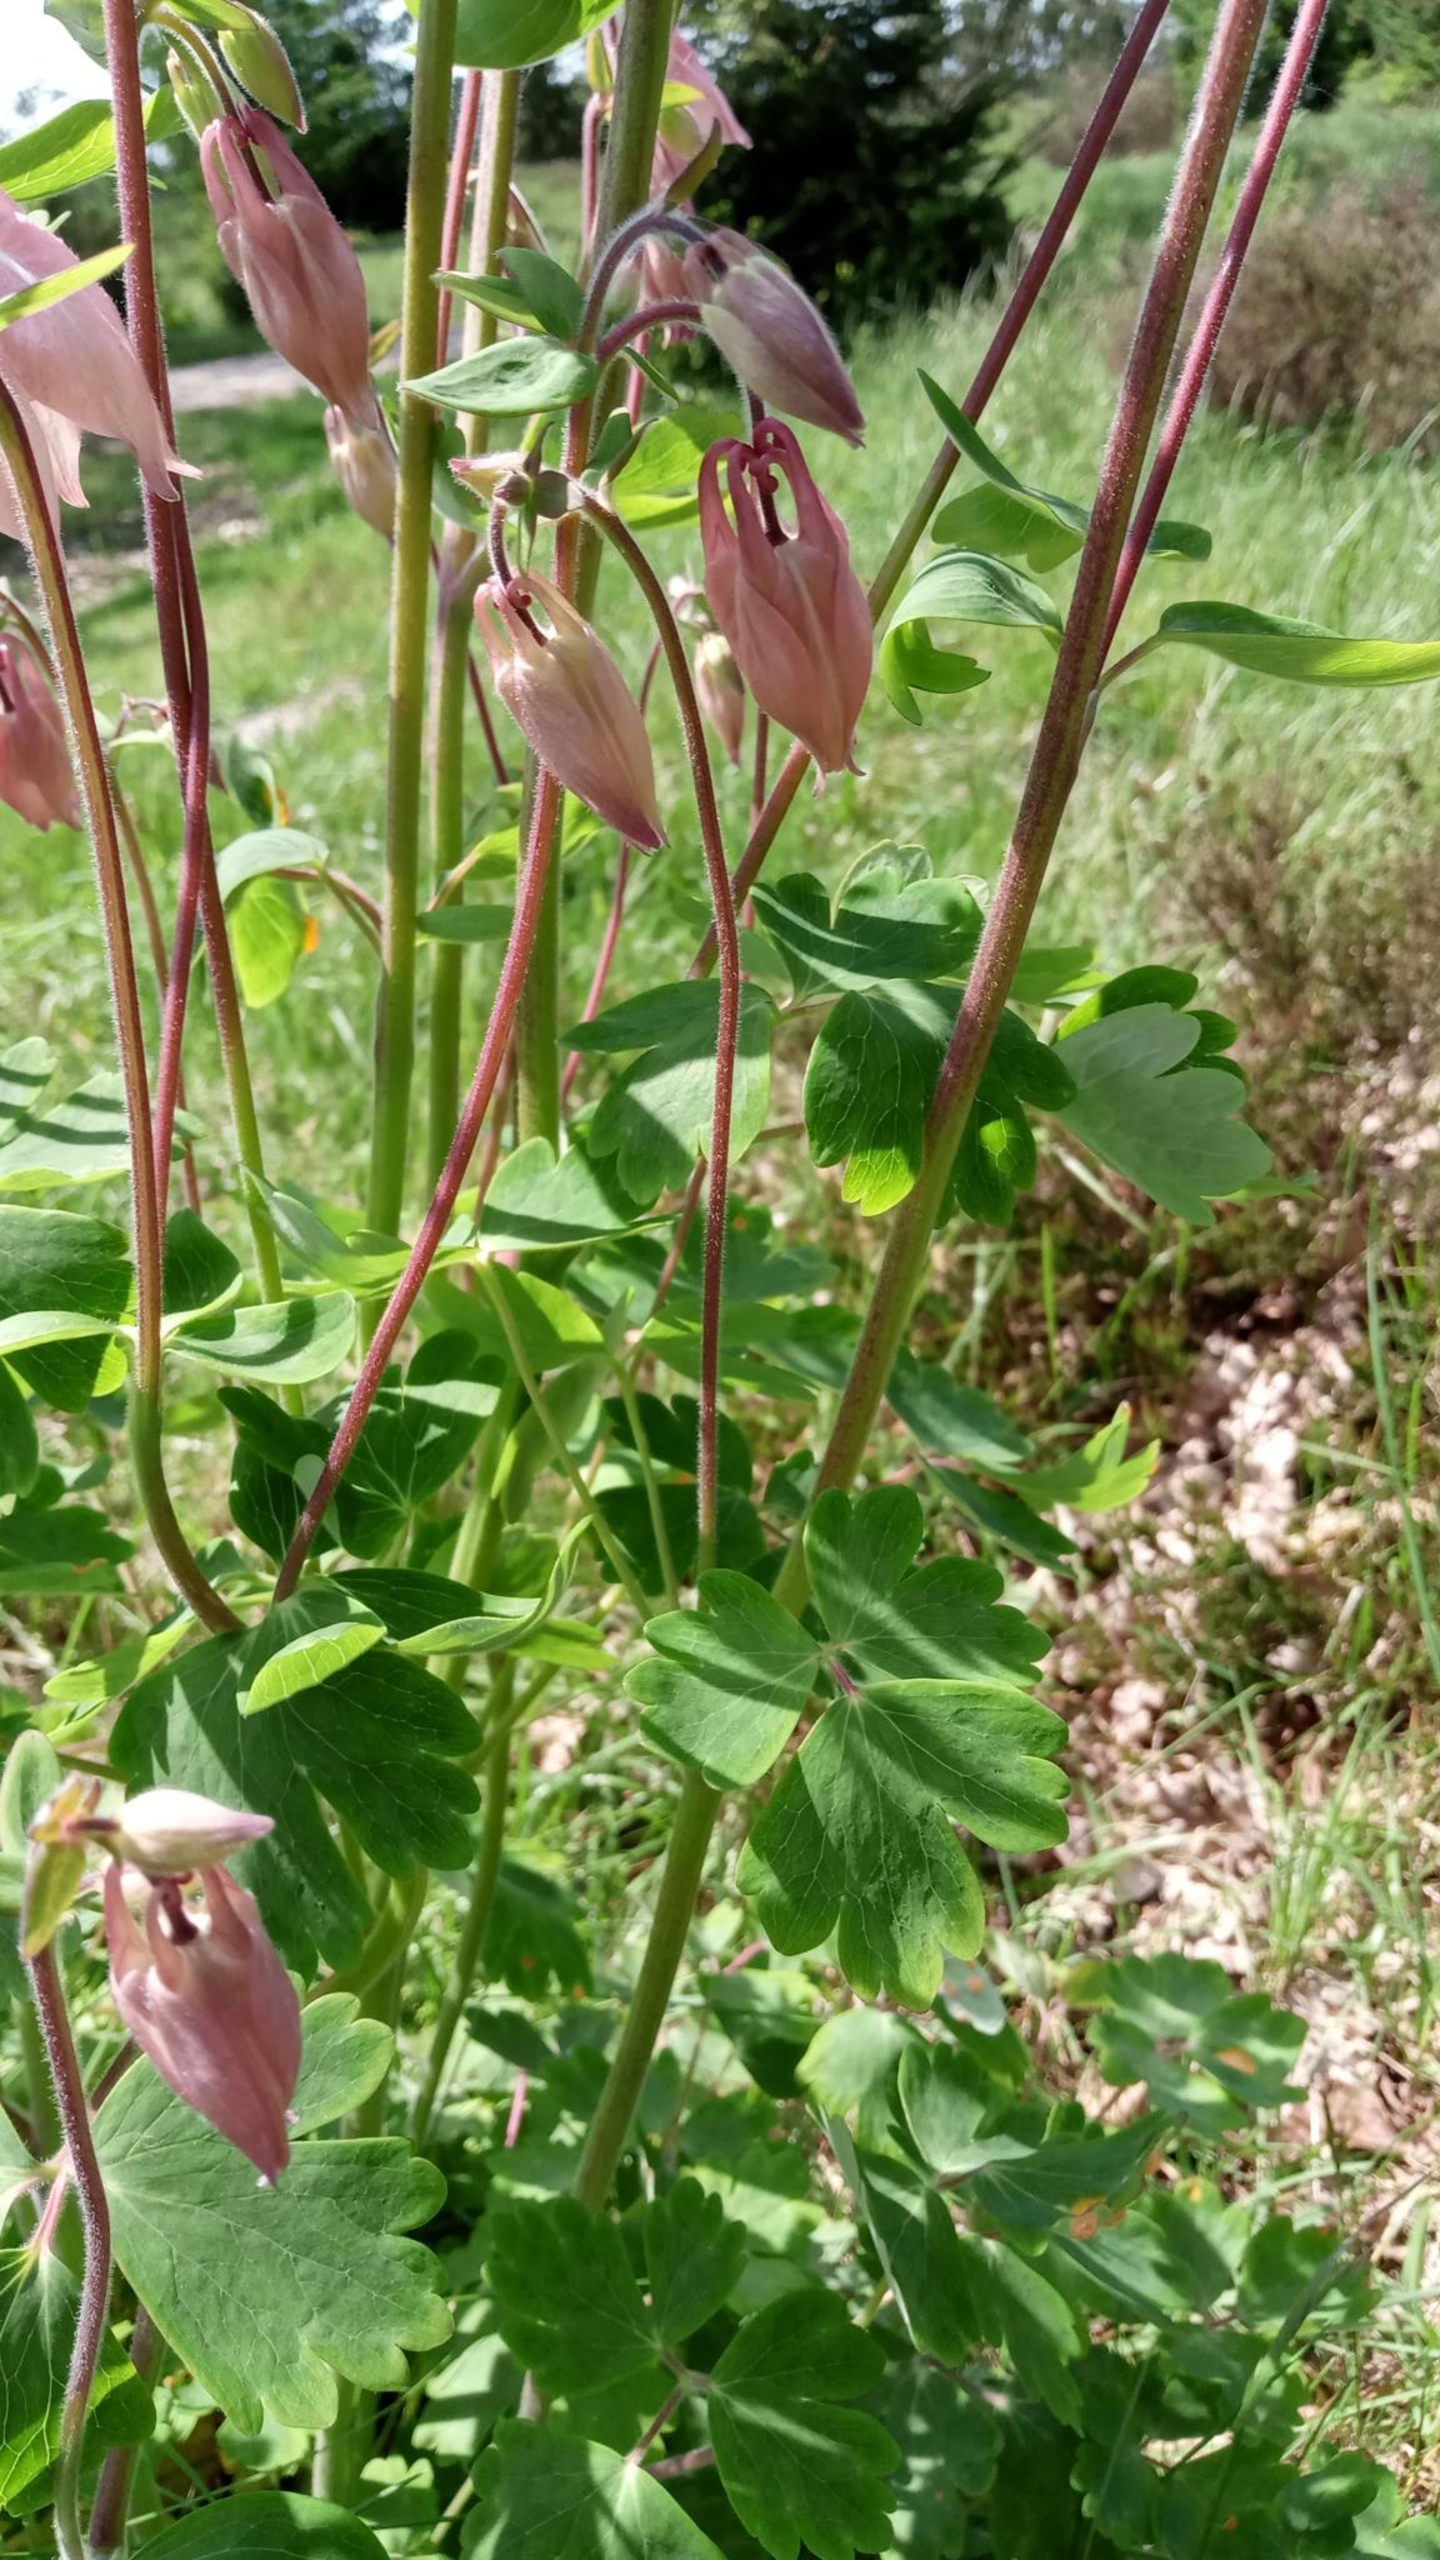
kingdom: Plantae
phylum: Tracheophyta
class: Magnoliopsida
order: Ranunculales
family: Ranunculaceae
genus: Aquilegia
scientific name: Aquilegia vulgaris
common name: Akeleje
